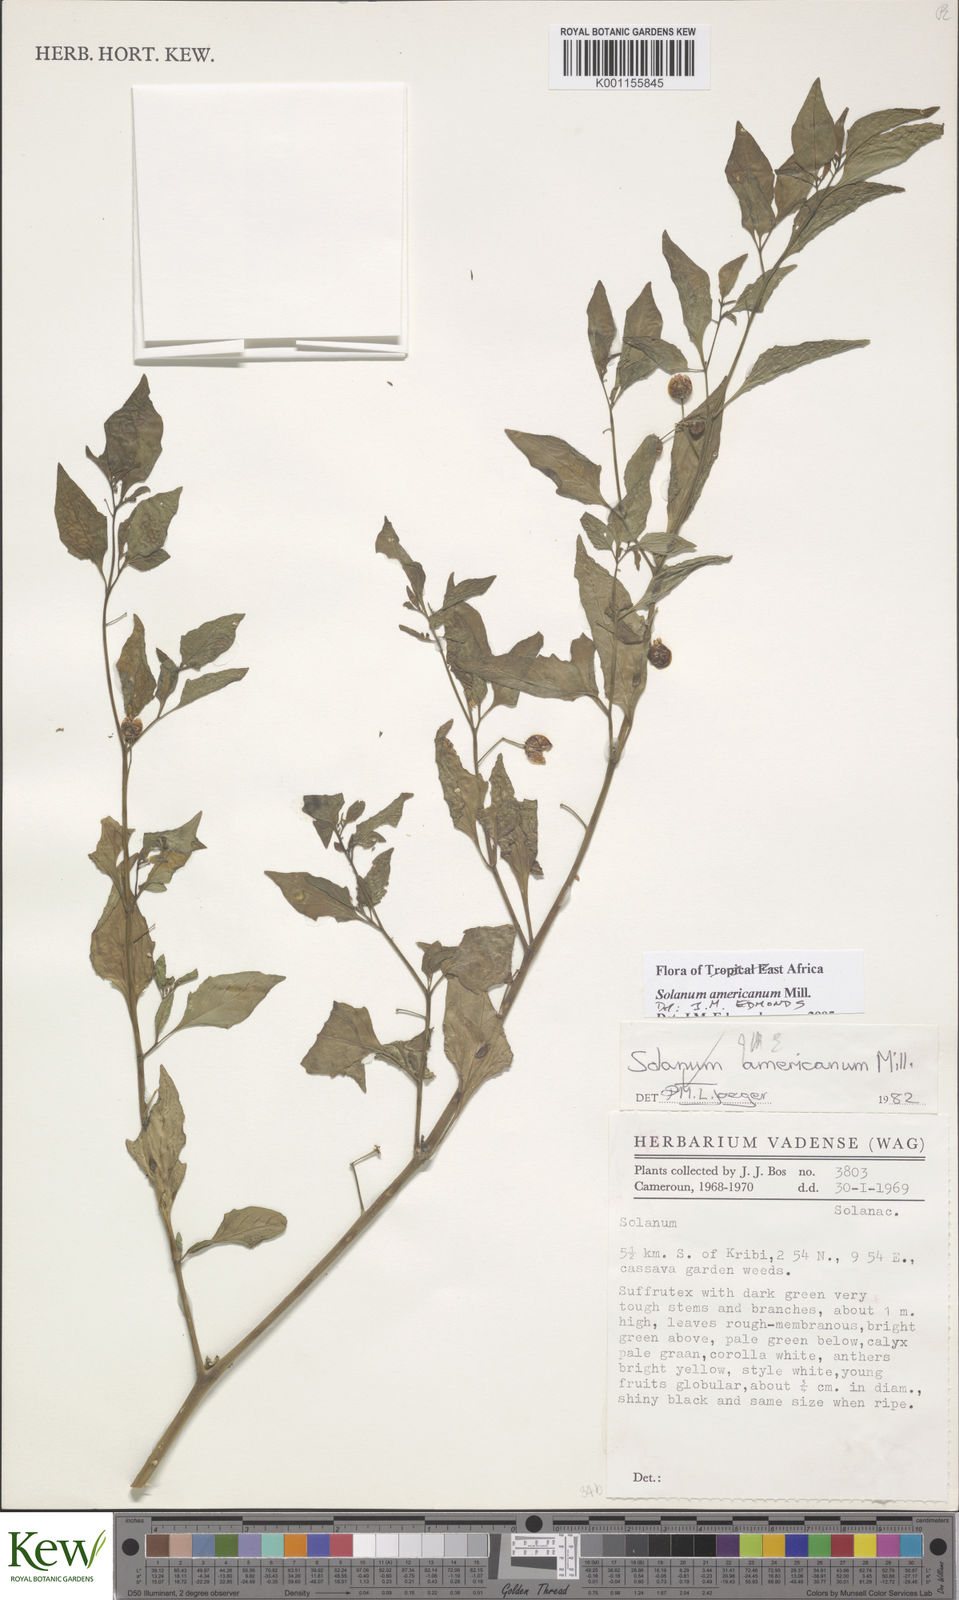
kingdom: Plantae
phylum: Tracheophyta
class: Magnoliopsida
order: Solanales
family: Solanaceae
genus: Solanum
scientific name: Solanum americanum
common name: American black nightshade
